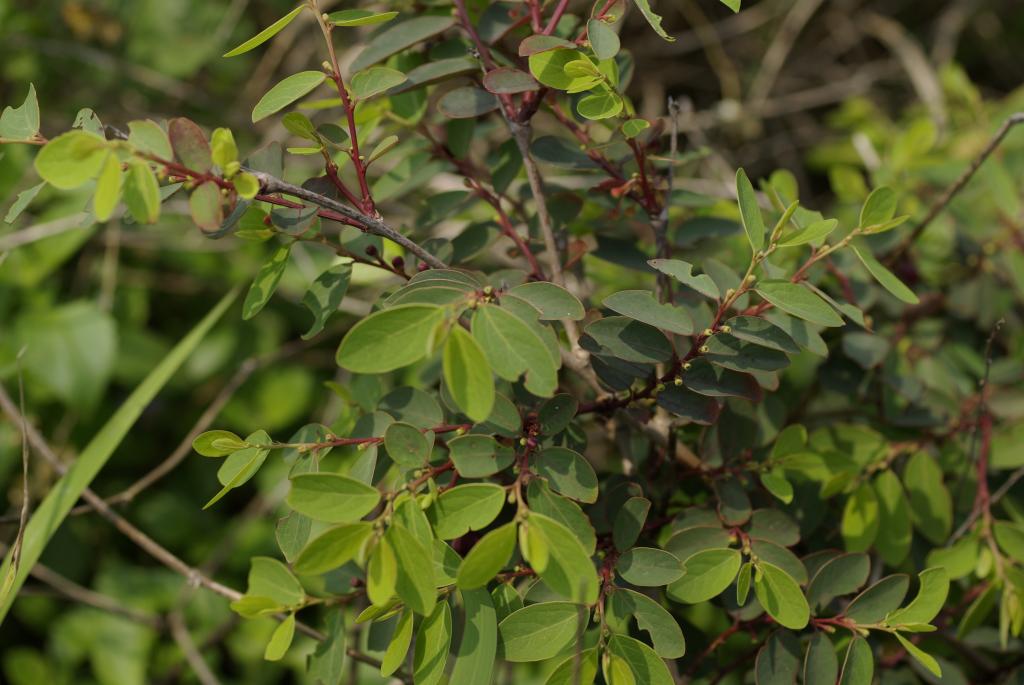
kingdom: Plantae
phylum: Tracheophyta
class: Magnoliopsida
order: Malpighiales
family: Phyllanthaceae
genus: Breynia
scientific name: Breynia officinalis
